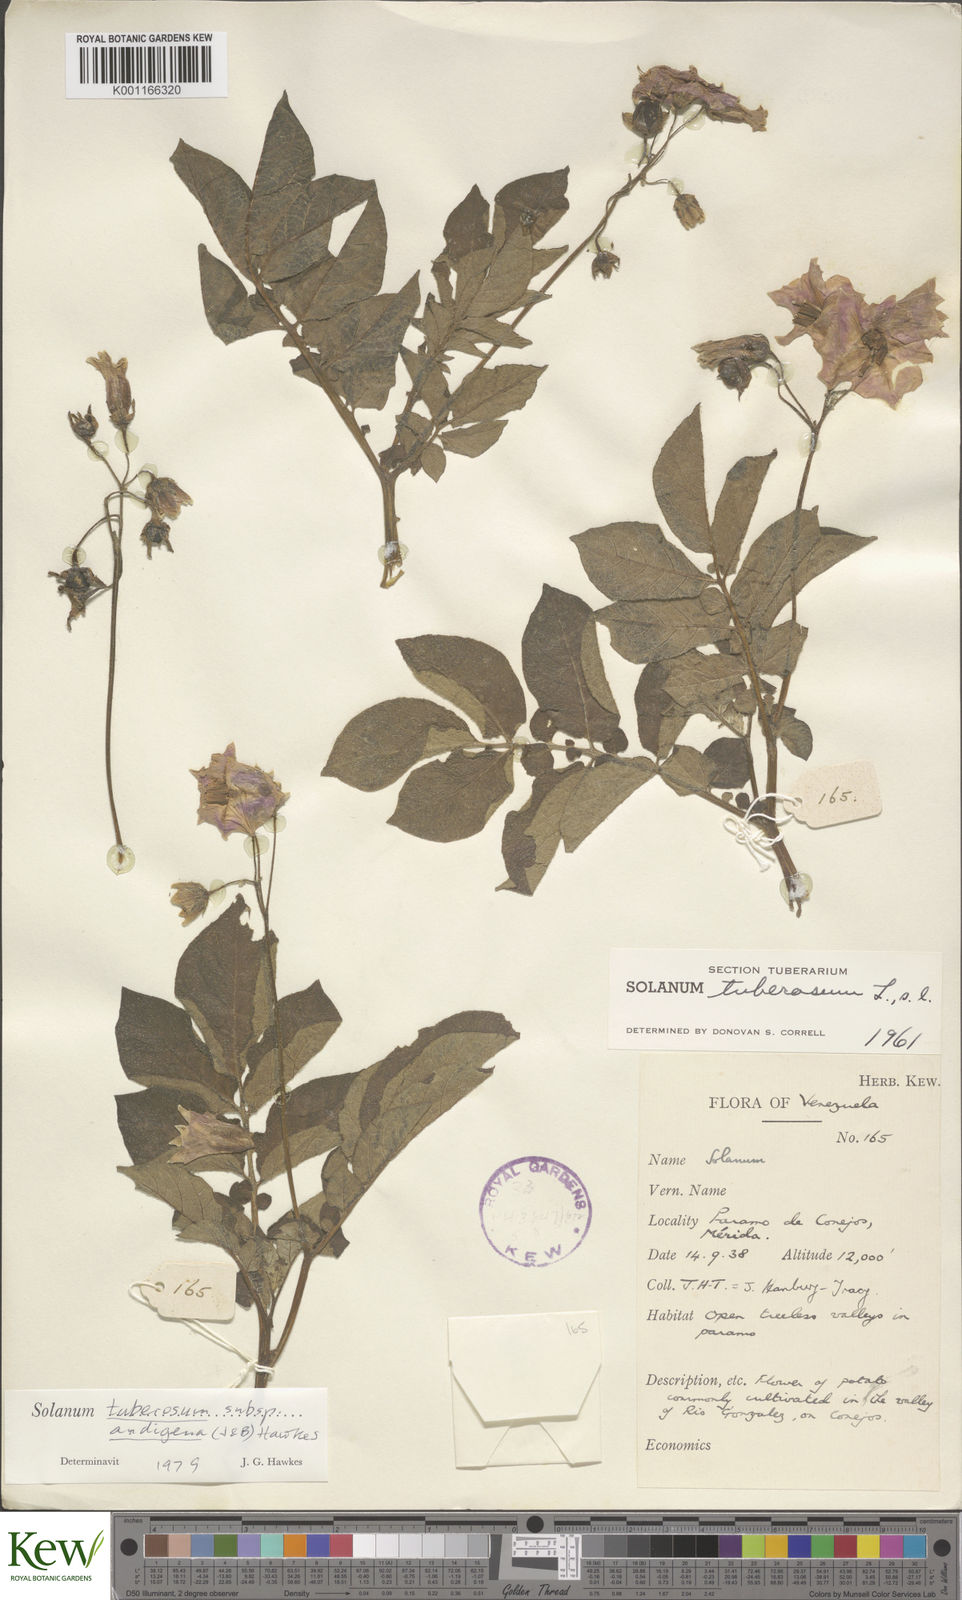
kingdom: Plantae
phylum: Tracheophyta
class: Magnoliopsida
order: Solanales
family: Solanaceae
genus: Solanum
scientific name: Solanum tuberosum
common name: Potato
